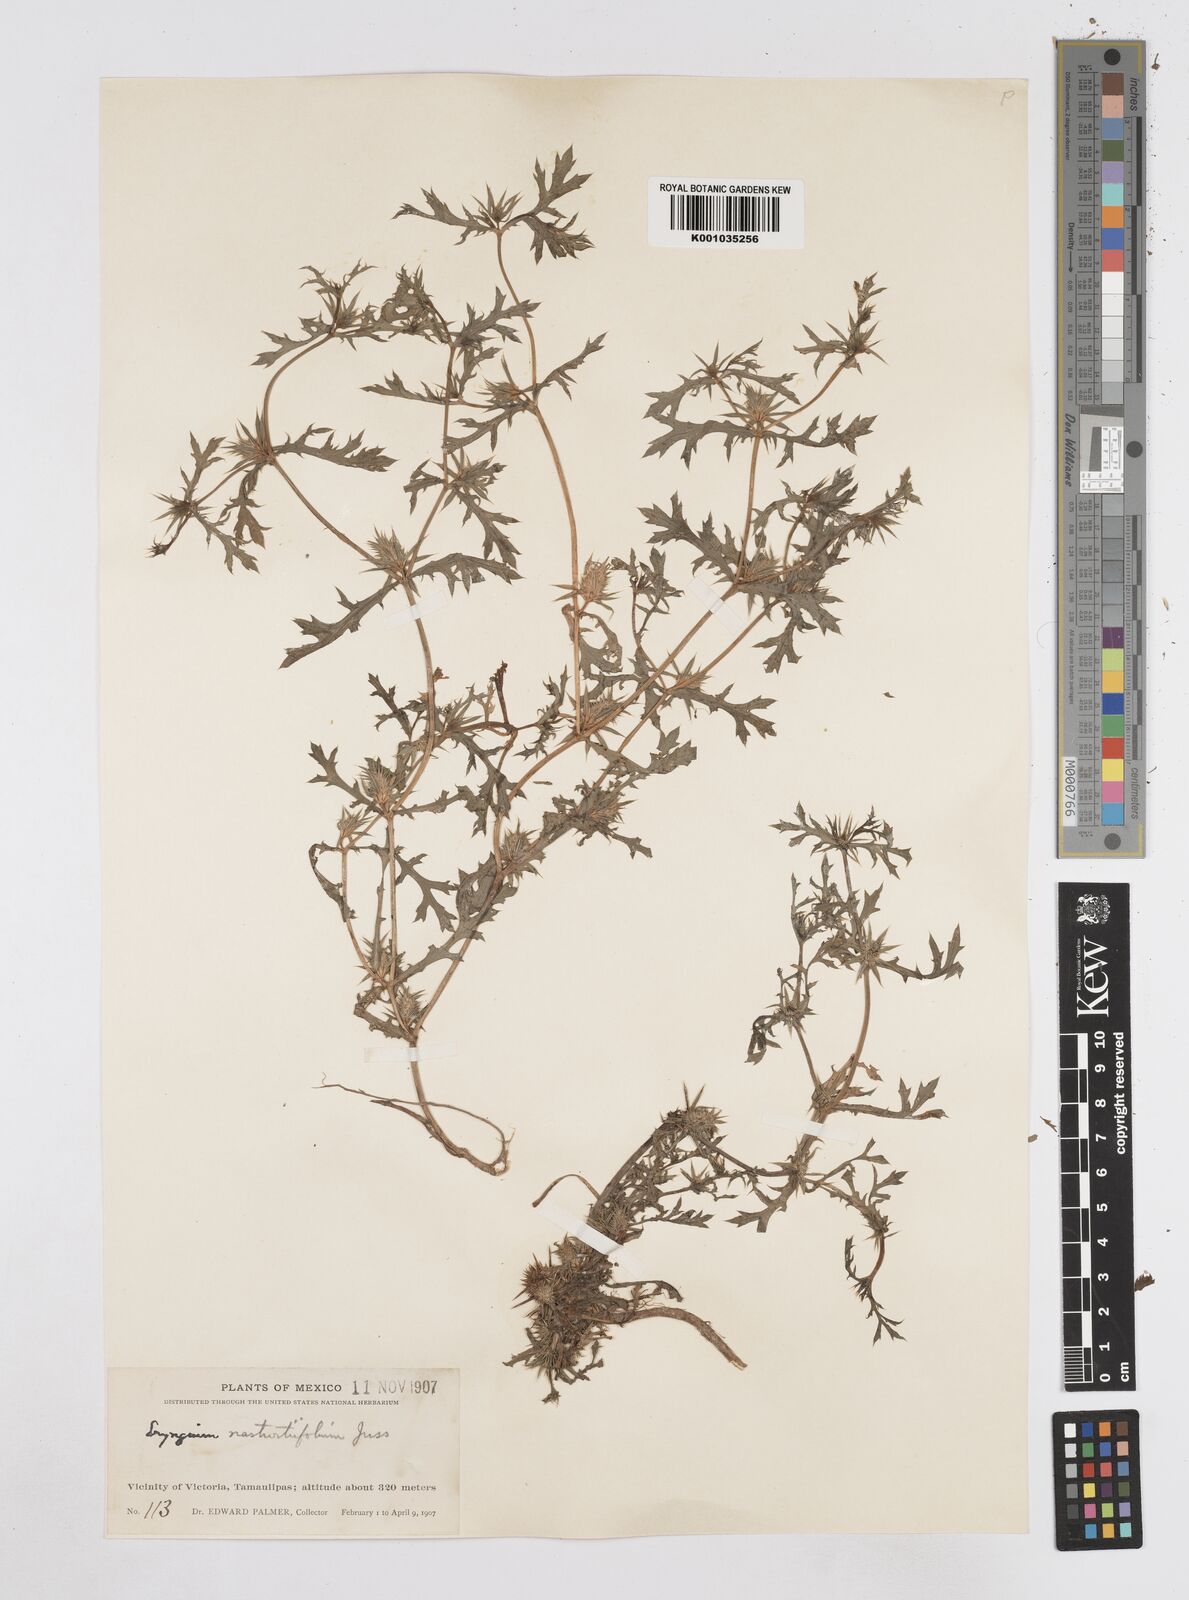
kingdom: Plantae
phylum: Tracheophyta
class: Magnoliopsida
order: Apiales
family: Apiaceae
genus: Eryngium
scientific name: Eryngium nasturtiifolium
